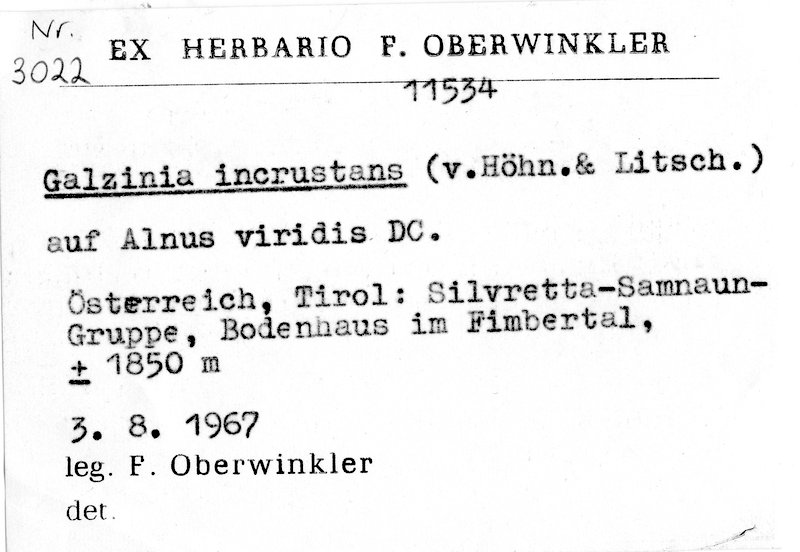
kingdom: Plantae
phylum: Tracheophyta
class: Magnoliopsida
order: Fagales
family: Betulaceae
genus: Alnus
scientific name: Alnus alnobetula
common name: Green alder
